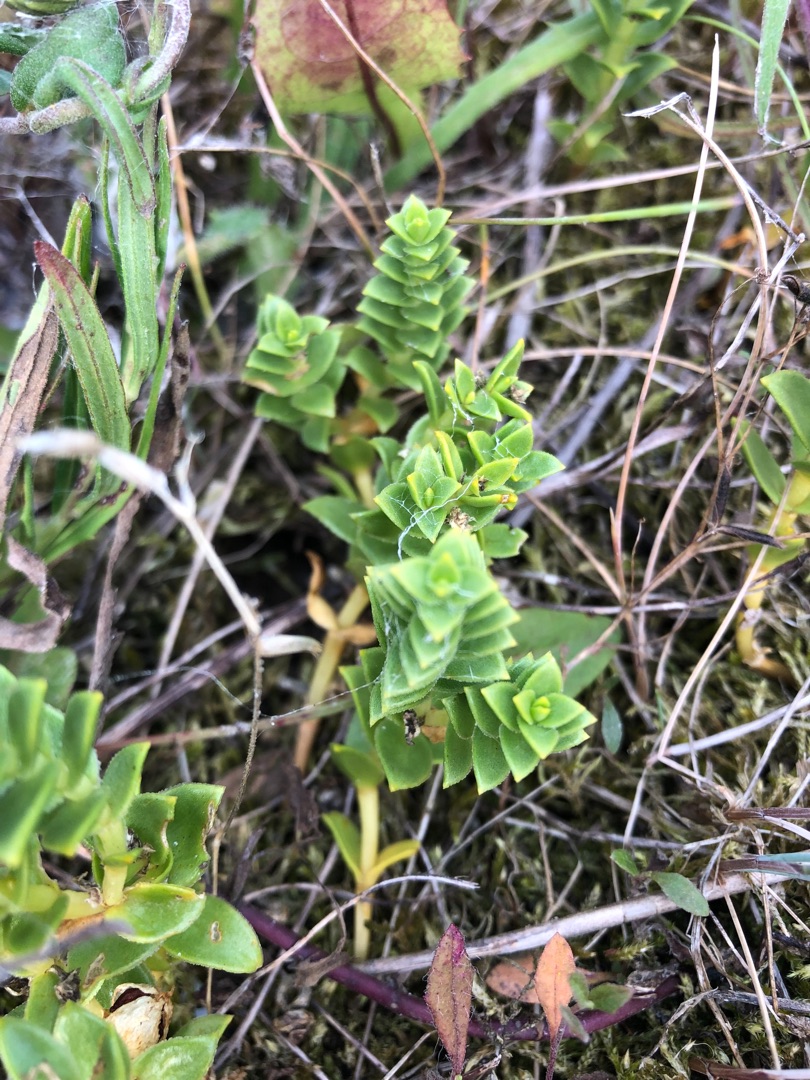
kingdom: Plantae
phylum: Tracheophyta
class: Magnoliopsida
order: Caryophyllales
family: Caryophyllaceae
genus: Honckenya
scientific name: Honckenya peploides
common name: Strandarve
